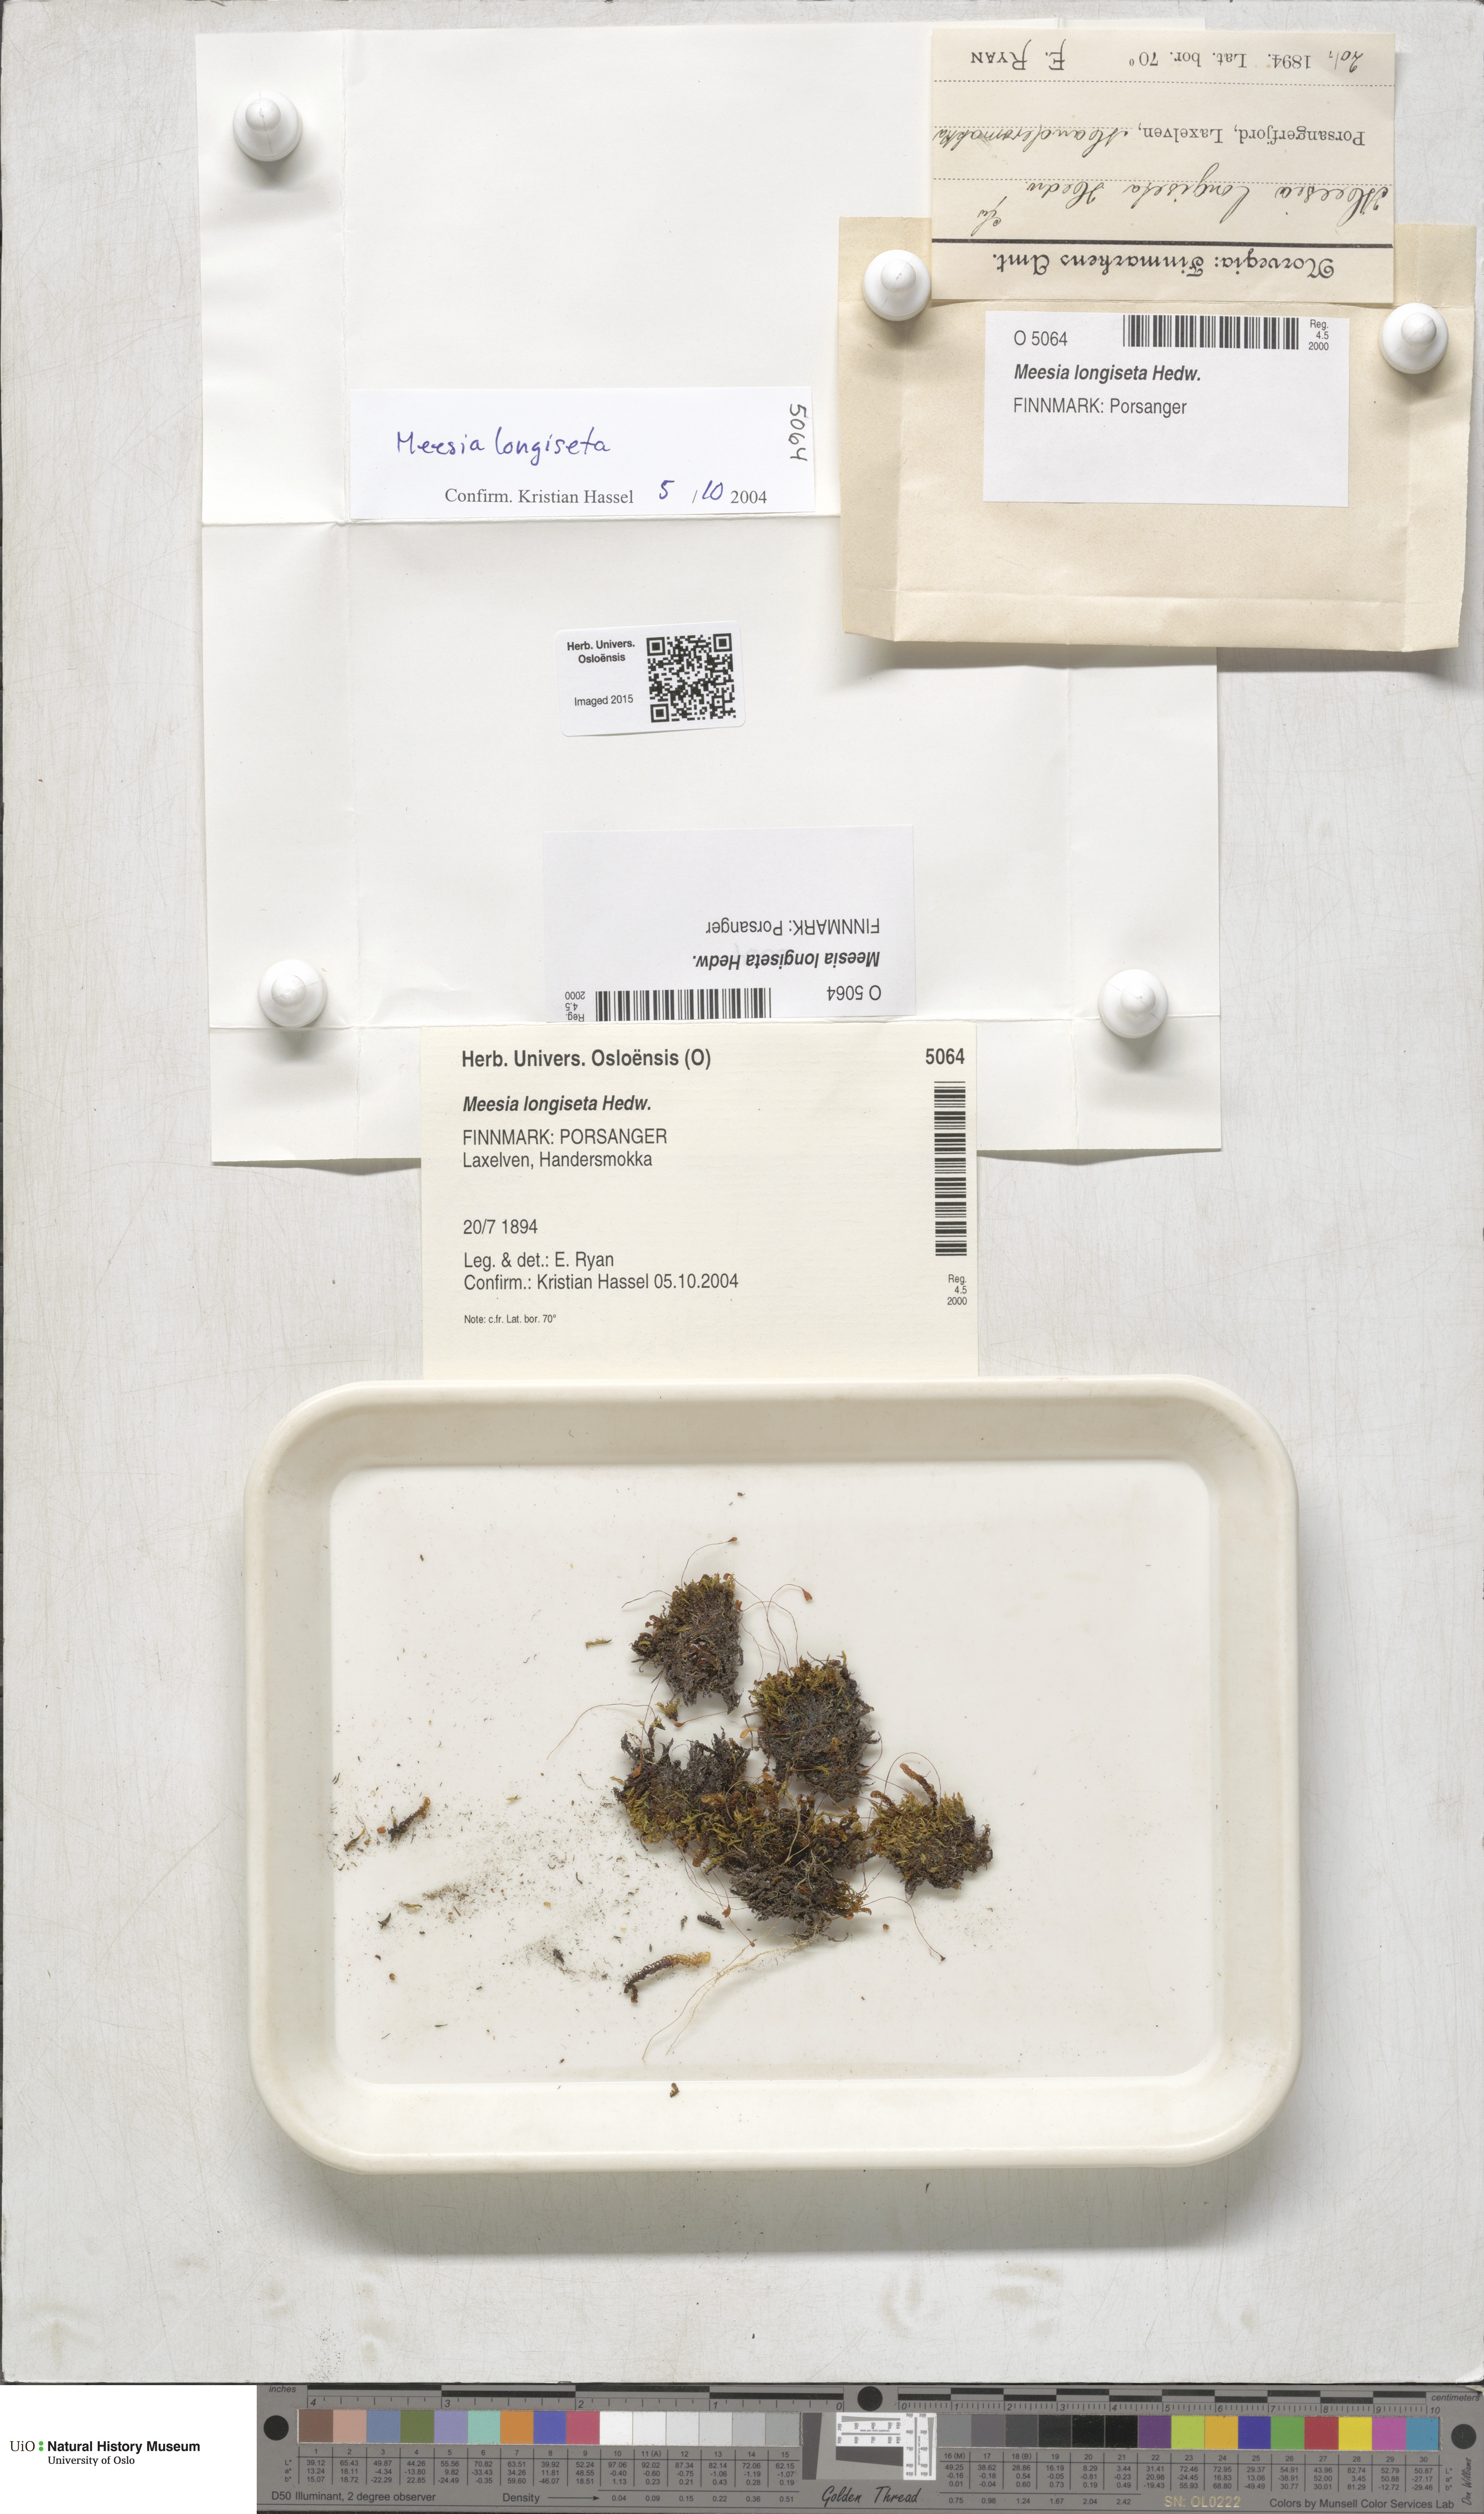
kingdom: Plantae
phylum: Bryophyta
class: Bryopsida
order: Splachnales
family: Meesiaceae
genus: Meesia
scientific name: Meesia longiseta
